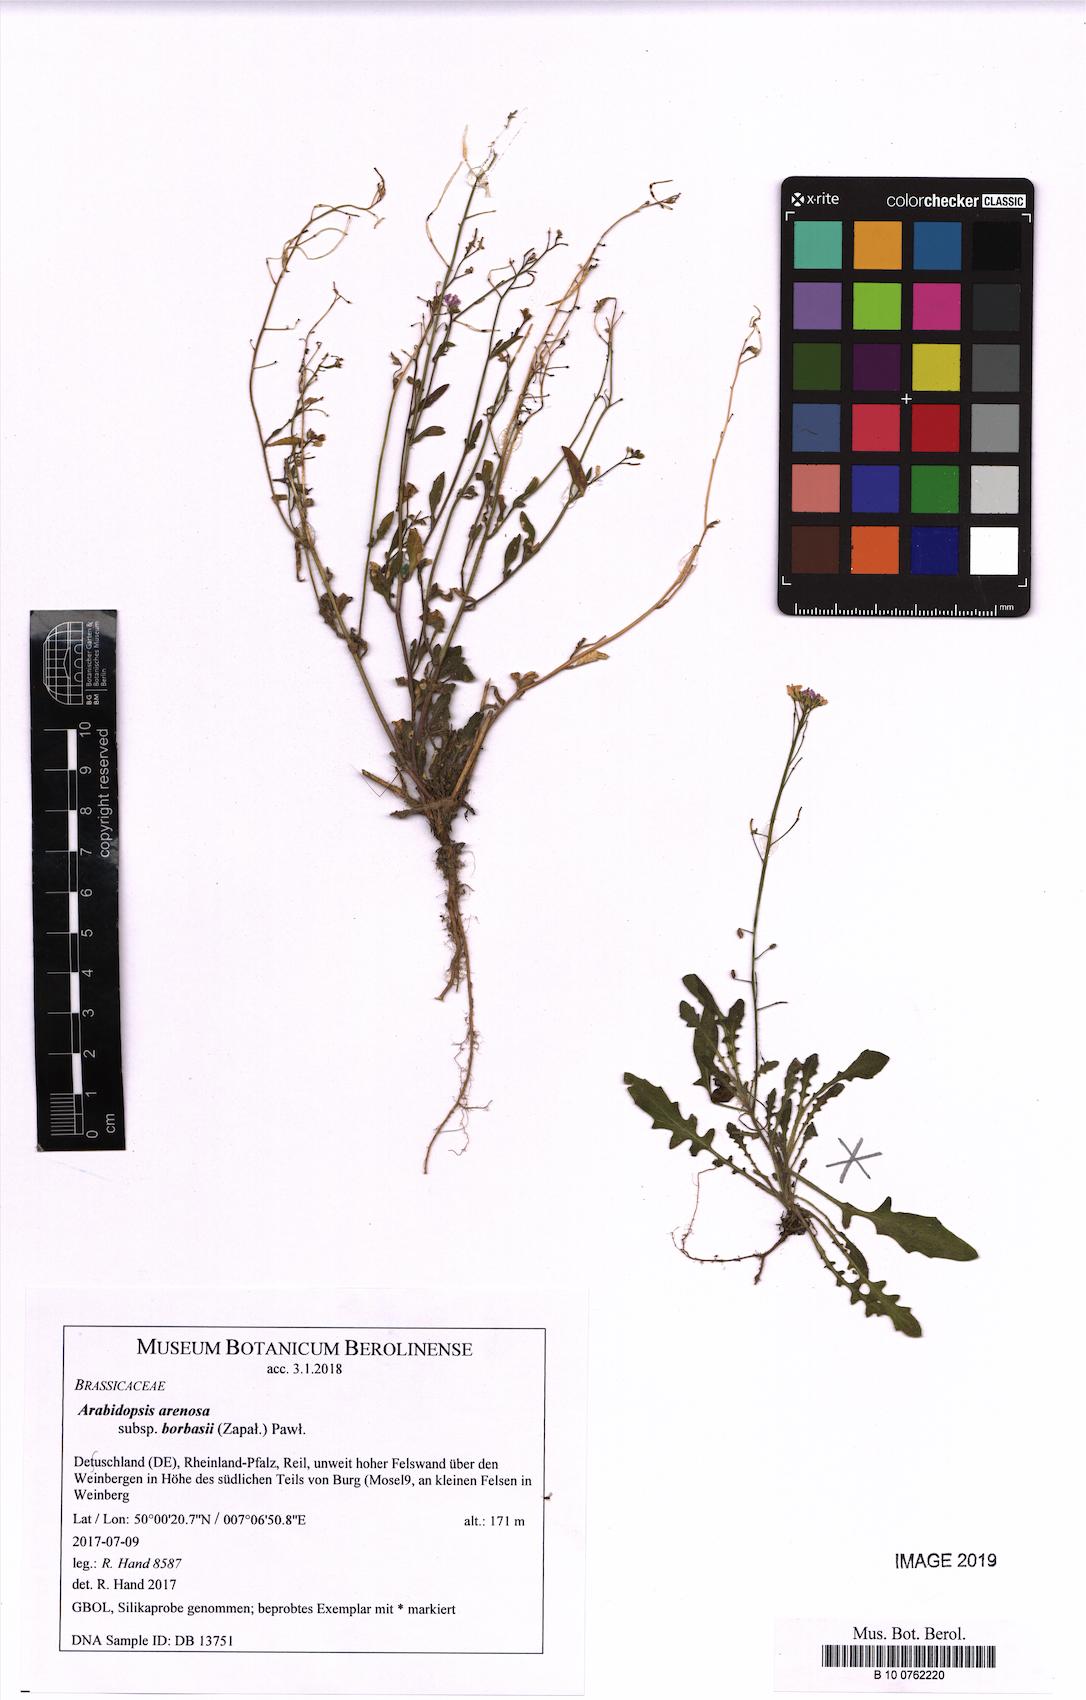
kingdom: Plantae
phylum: Tracheophyta
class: Magnoliopsida
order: Brassicales
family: Brassicaceae
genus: Arabidopsis
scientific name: Arabidopsis arenosa
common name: Sand rock-cress
